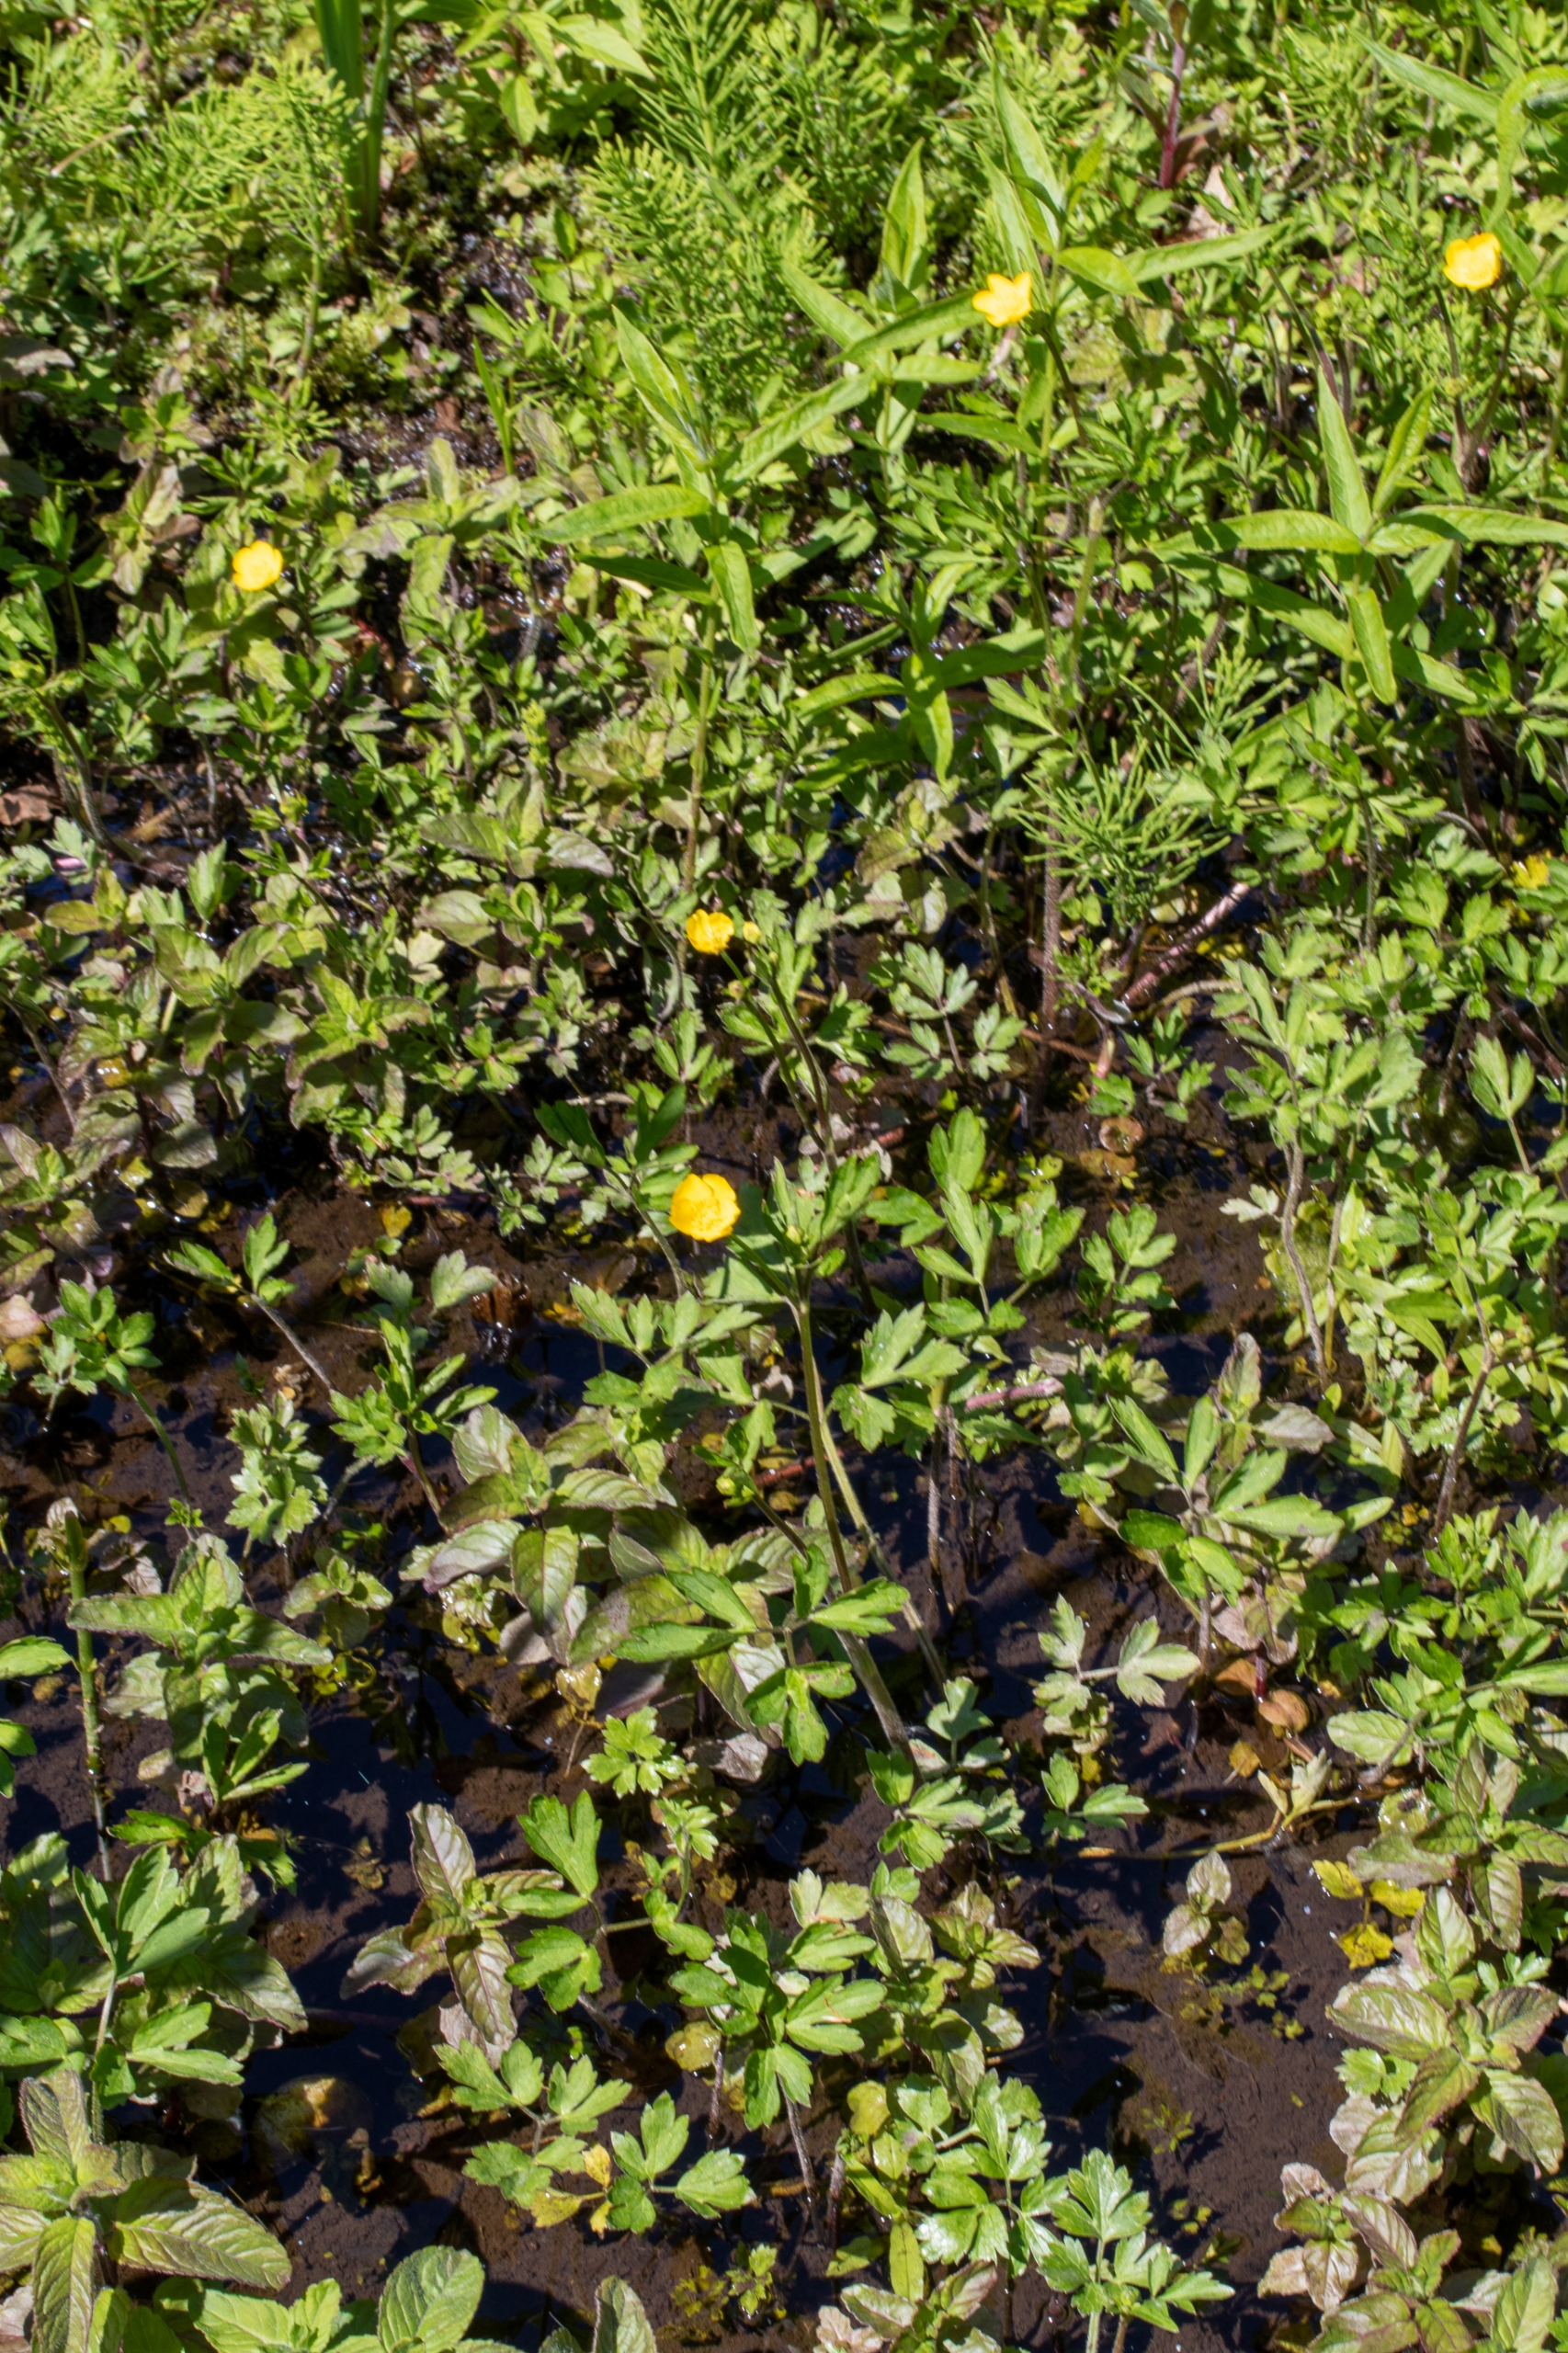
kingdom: Plantae
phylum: Tracheophyta
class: Magnoliopsida
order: Ranunculales
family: Ranunculaceae
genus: Ranunculus
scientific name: Ranunculus repens
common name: Lav ranunkel
